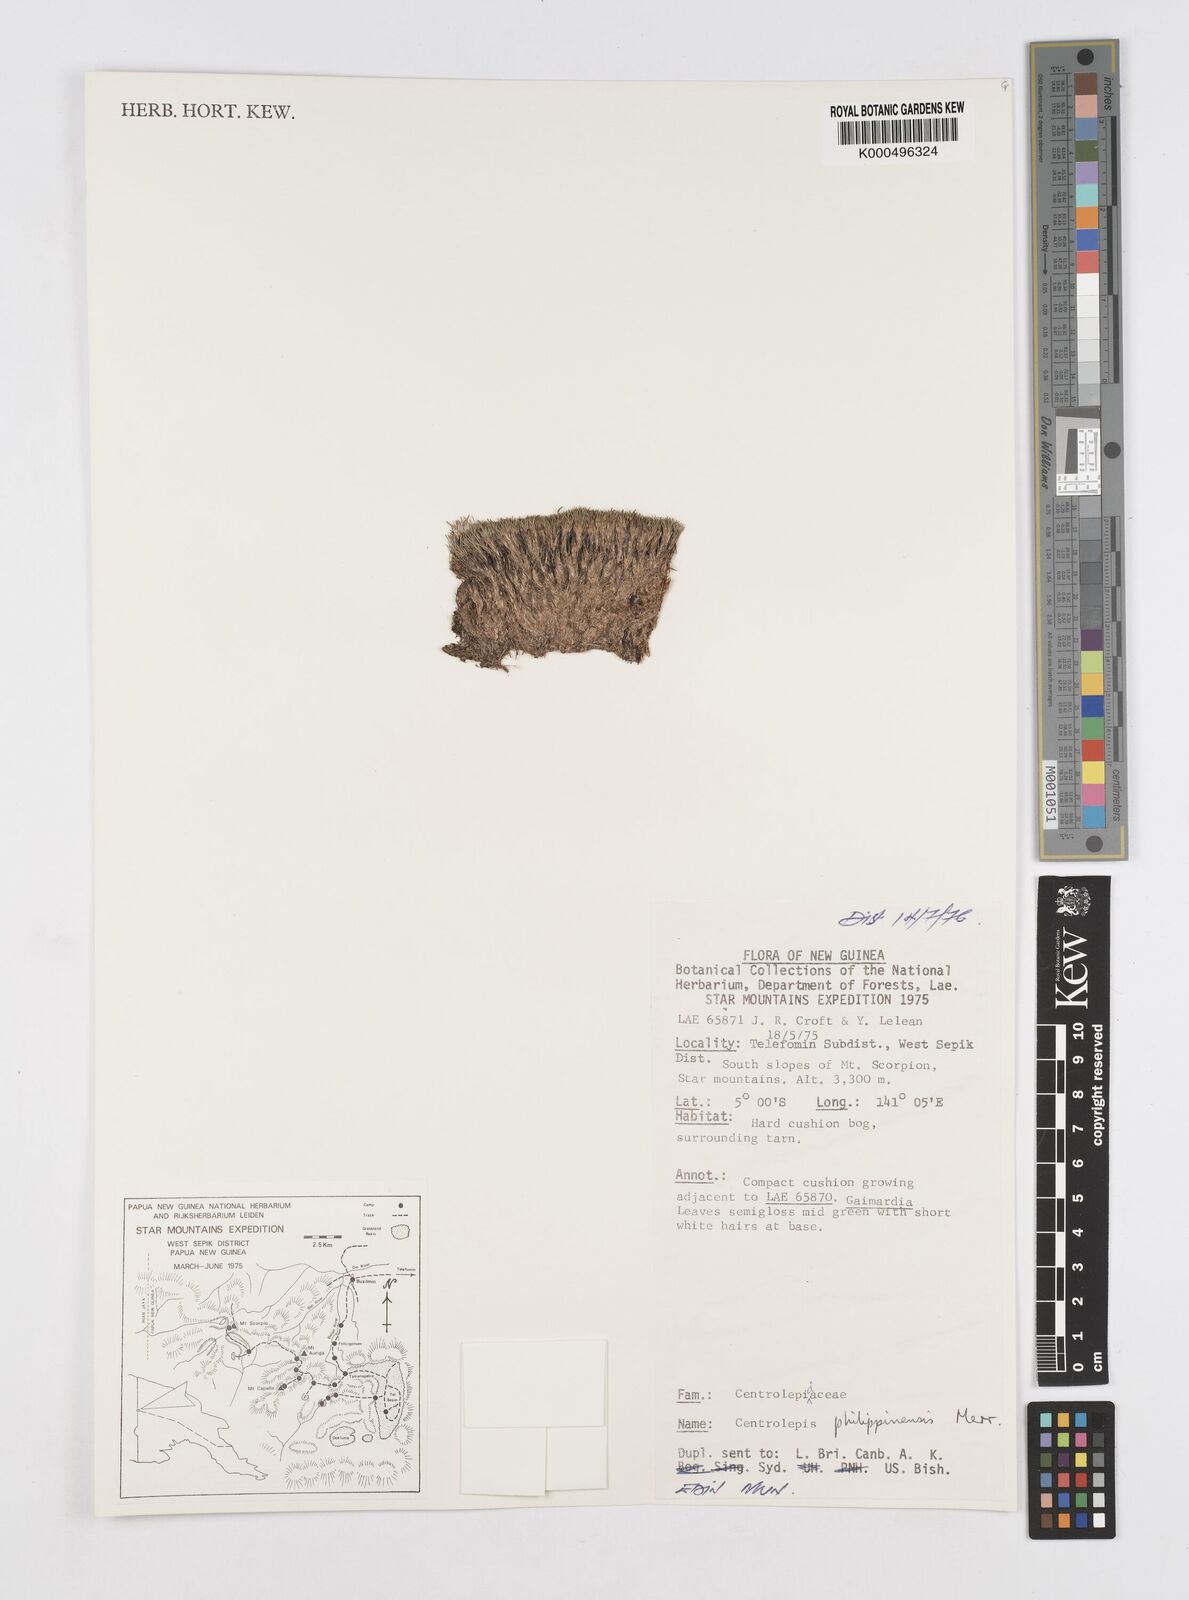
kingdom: Plantae
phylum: Tracheophyta
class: Liliopsida
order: Poales
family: Restionaceae
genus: Centrolepis
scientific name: Centrolepis philippinensis
